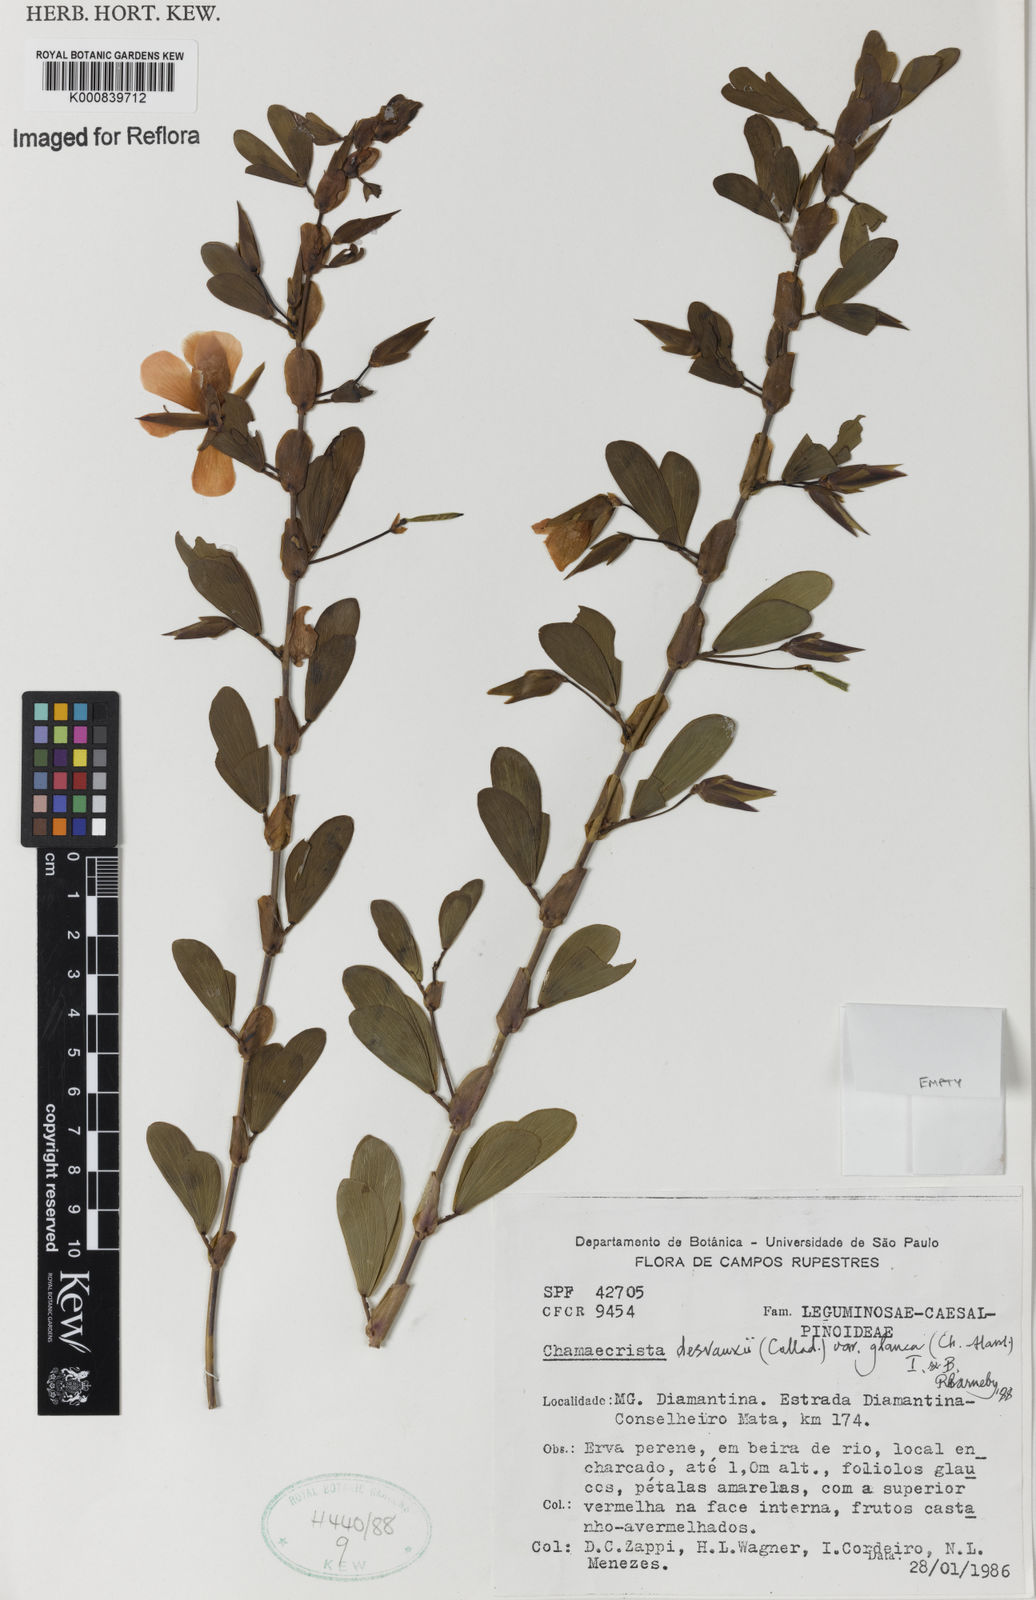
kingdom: Plantae
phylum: Tracheophyta
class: Magnoliopsida
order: Fabales
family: Fabaceae
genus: Chamaecrista
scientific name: Chamaecrista desvauxii
